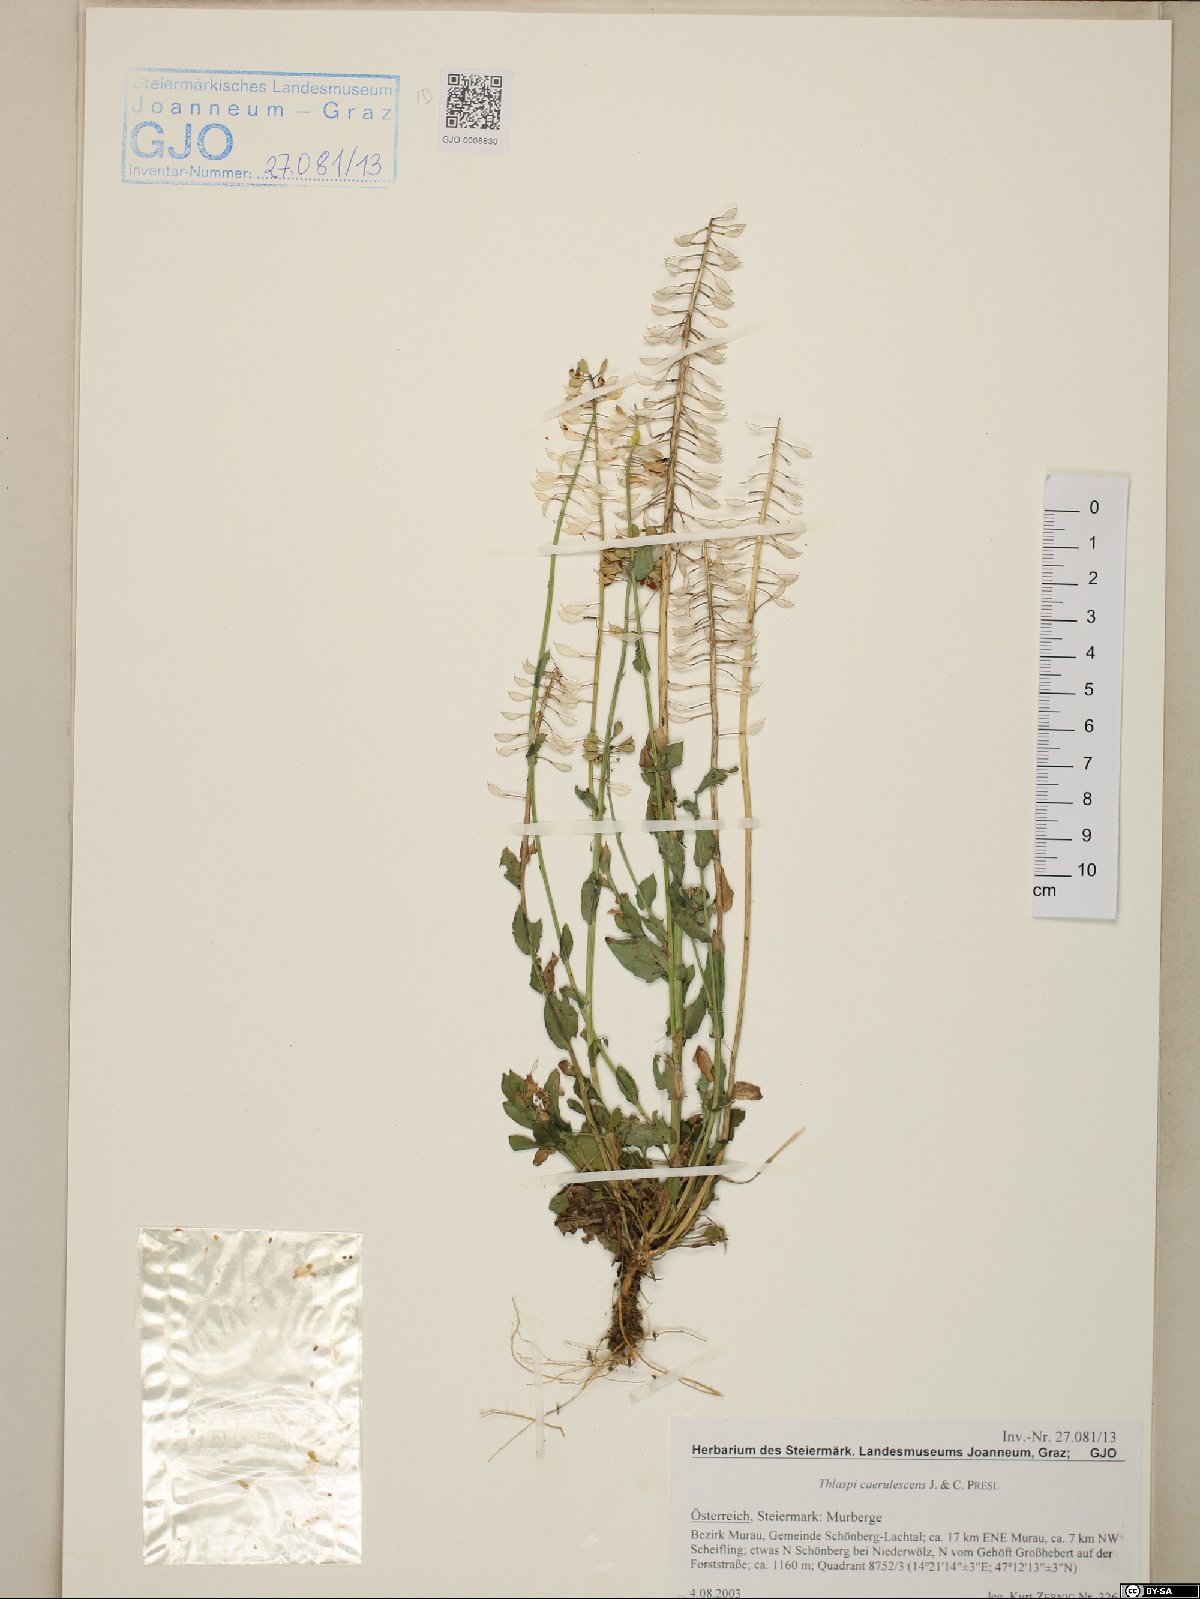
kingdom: Plantae
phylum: Tracheophyta
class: Magnoliopsida
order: Brassicales
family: Brassicaceae
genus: Noccaea
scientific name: Noccaea caerulescens
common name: Alpine pennycress
